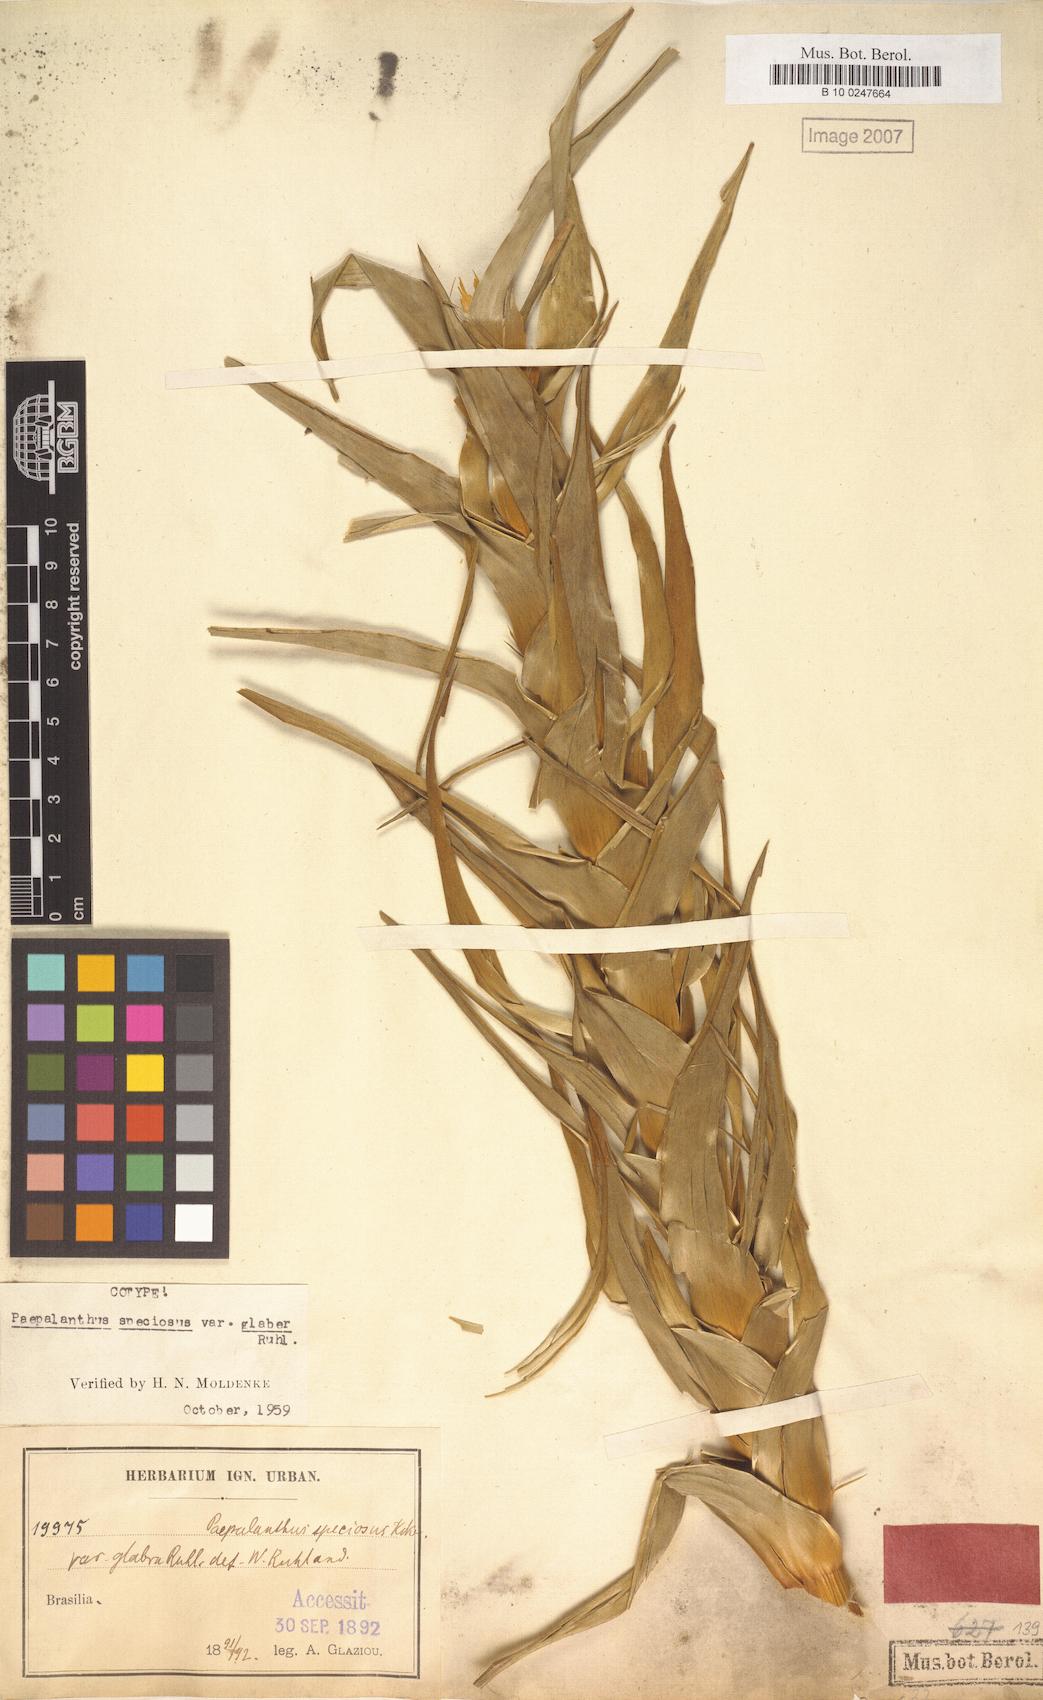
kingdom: Plantae
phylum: Tracheophyta
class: Liliopsida
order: Poales
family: Eriocaulaceae
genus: Paepalanthus
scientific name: Paepalanthus chiquitensis
